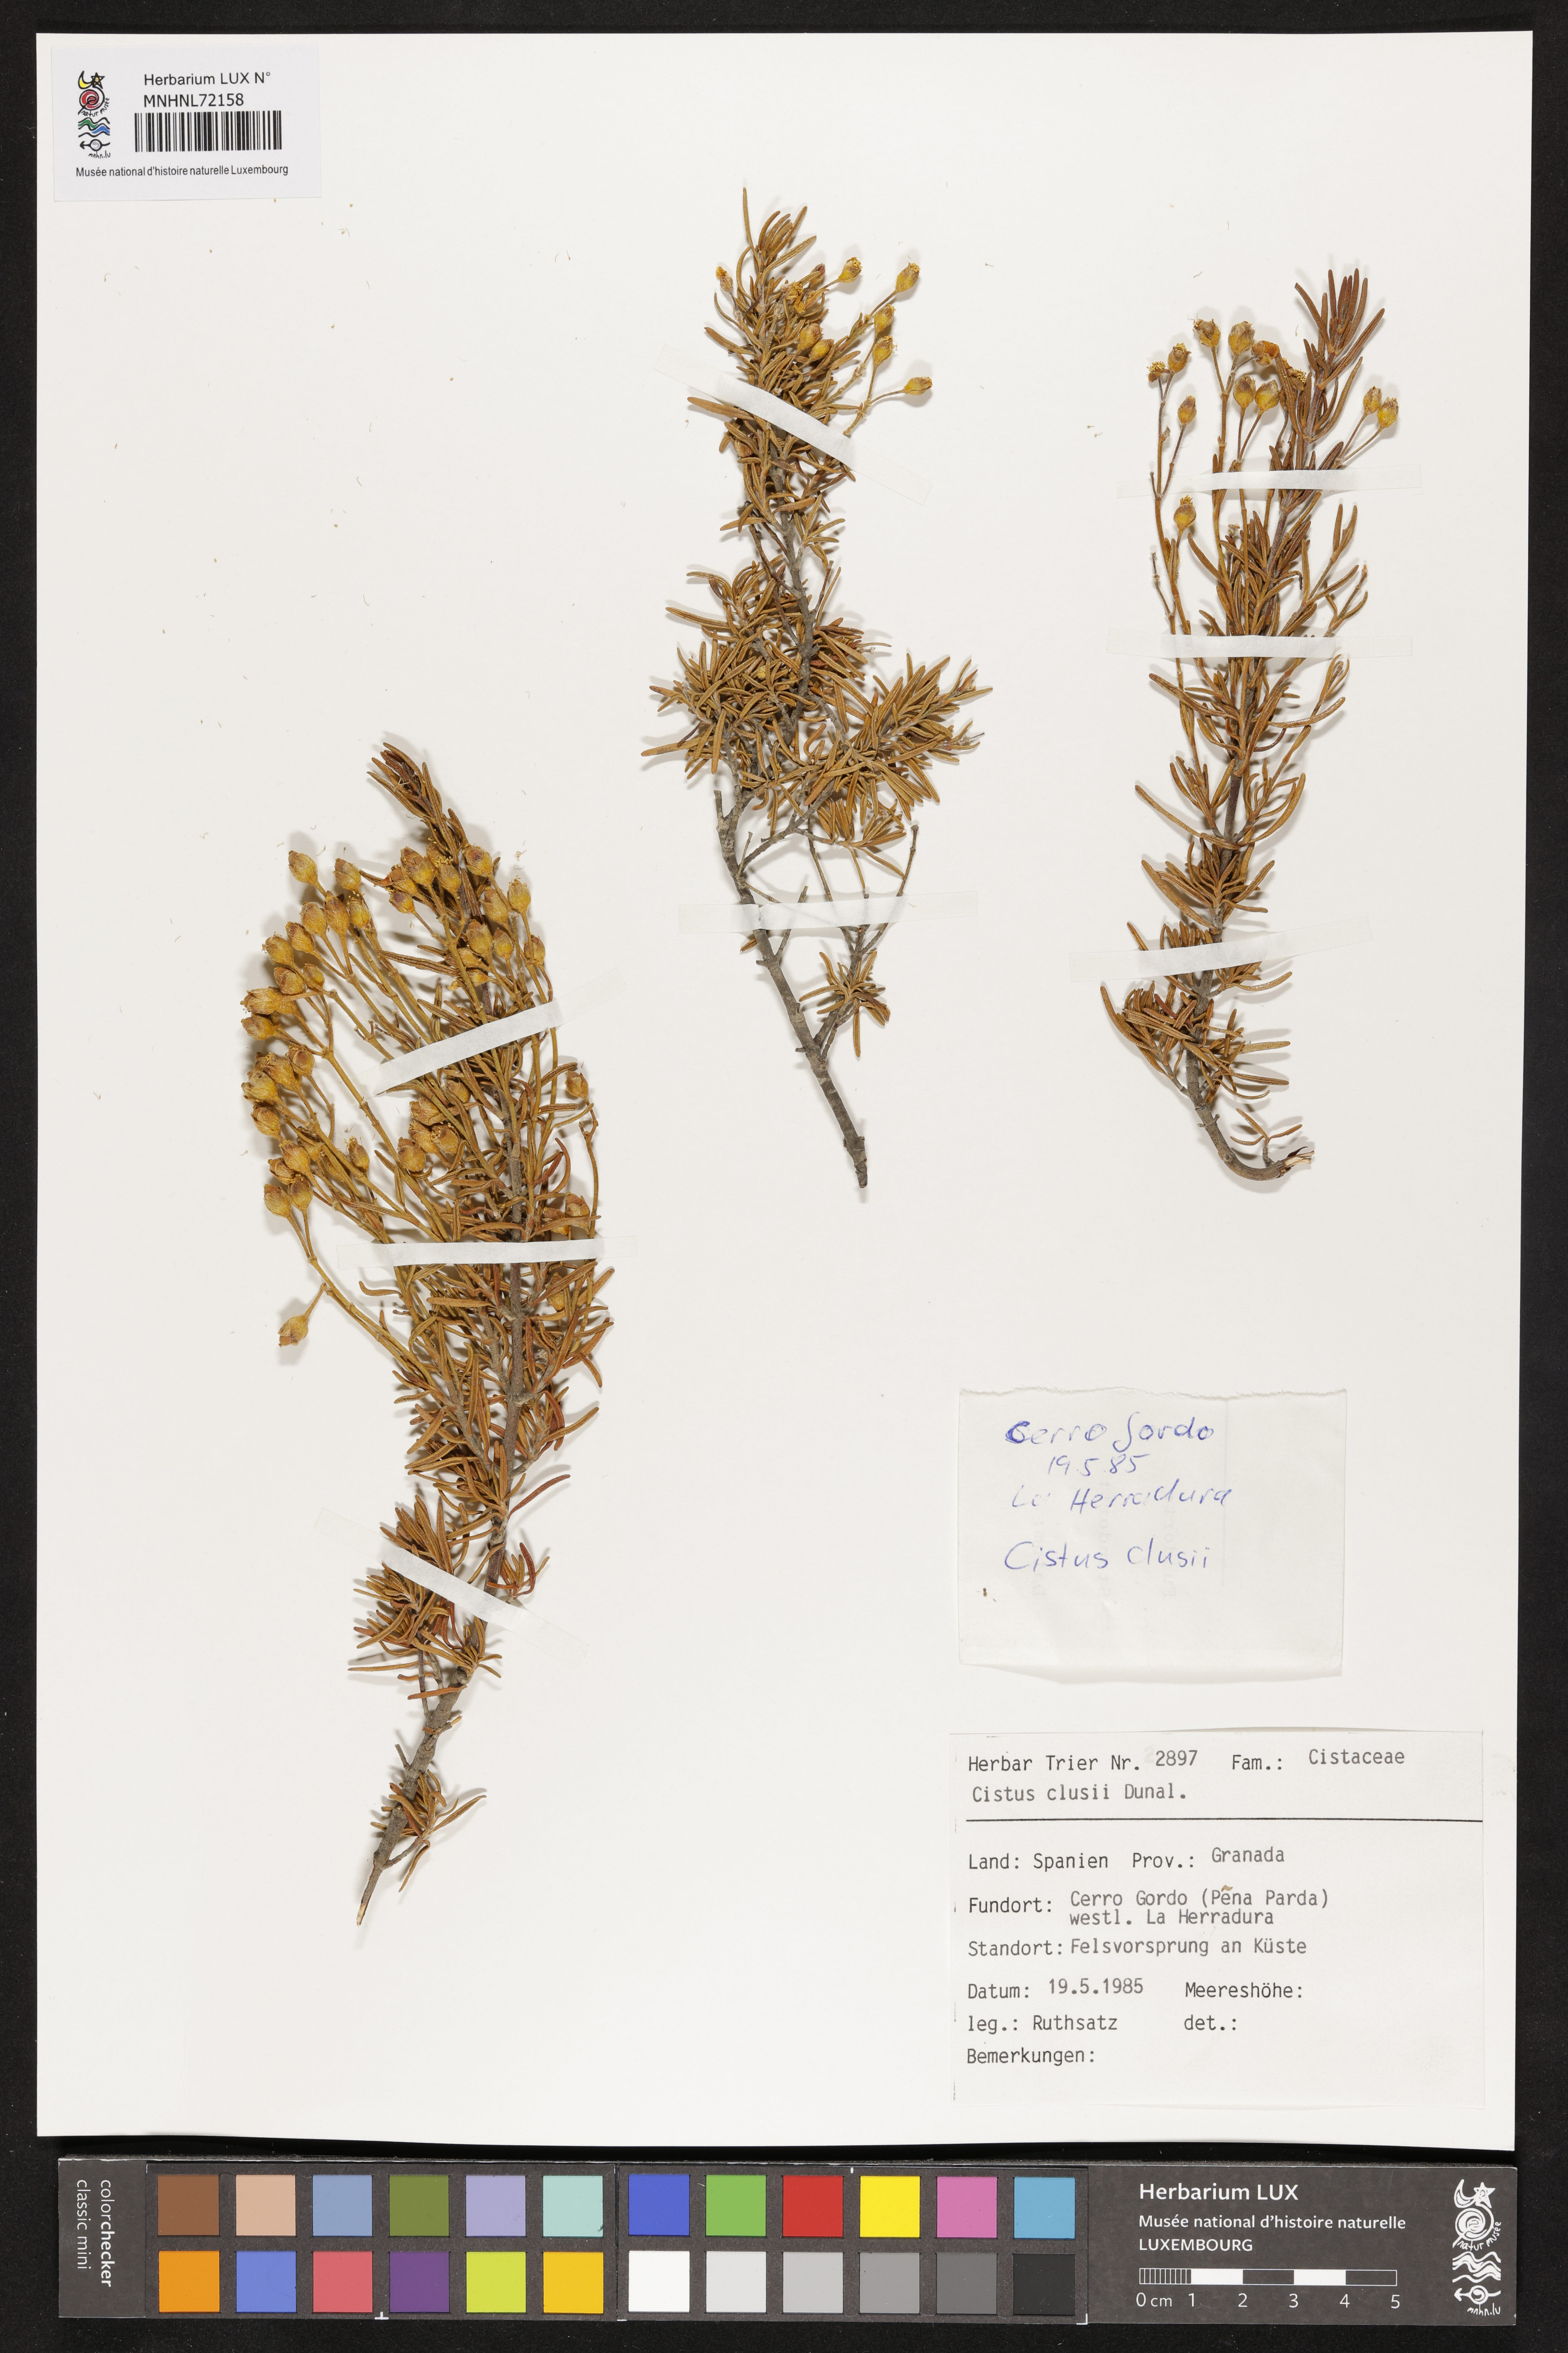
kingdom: Plantae
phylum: Tracheophyta
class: Magnoliopsida
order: Malvales
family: Cistaceae
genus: Cistus
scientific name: Cistus clusii
